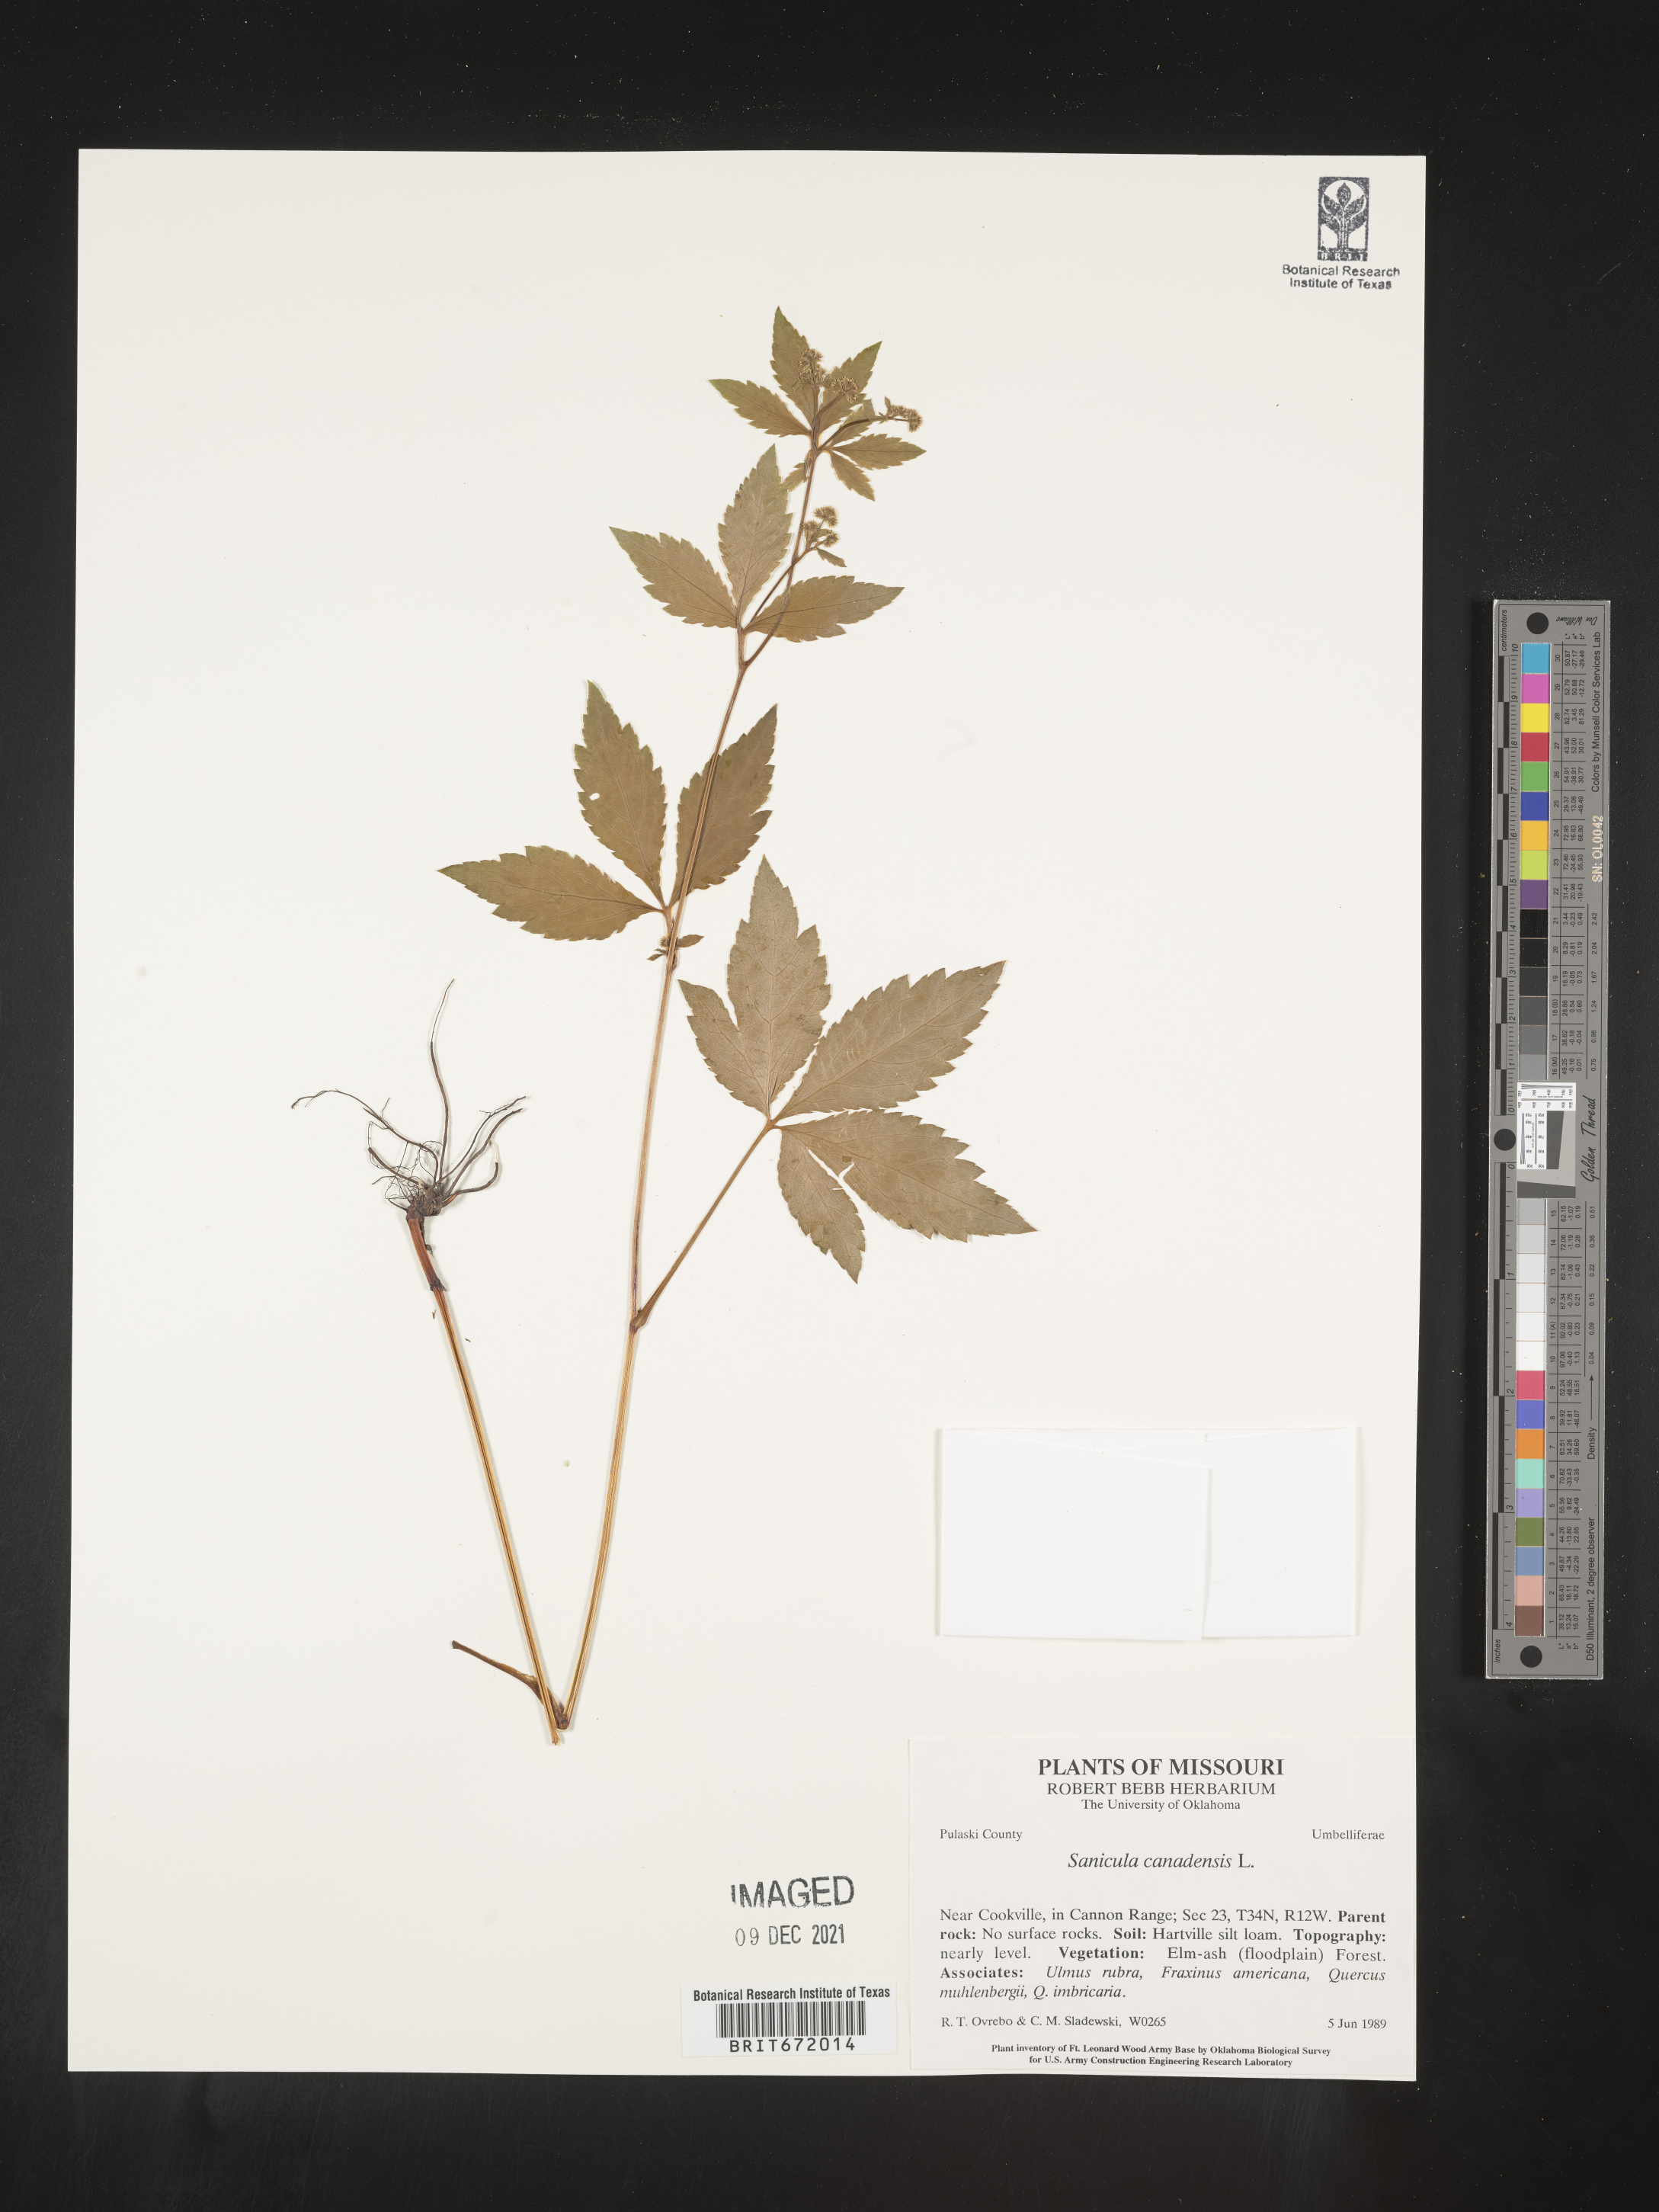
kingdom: Plantae
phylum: Tracheophyta
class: Magnoliopsida
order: Apiales
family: Apiaceae
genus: Sanicula
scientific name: Sanicula canadensis
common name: Canada sanicle
